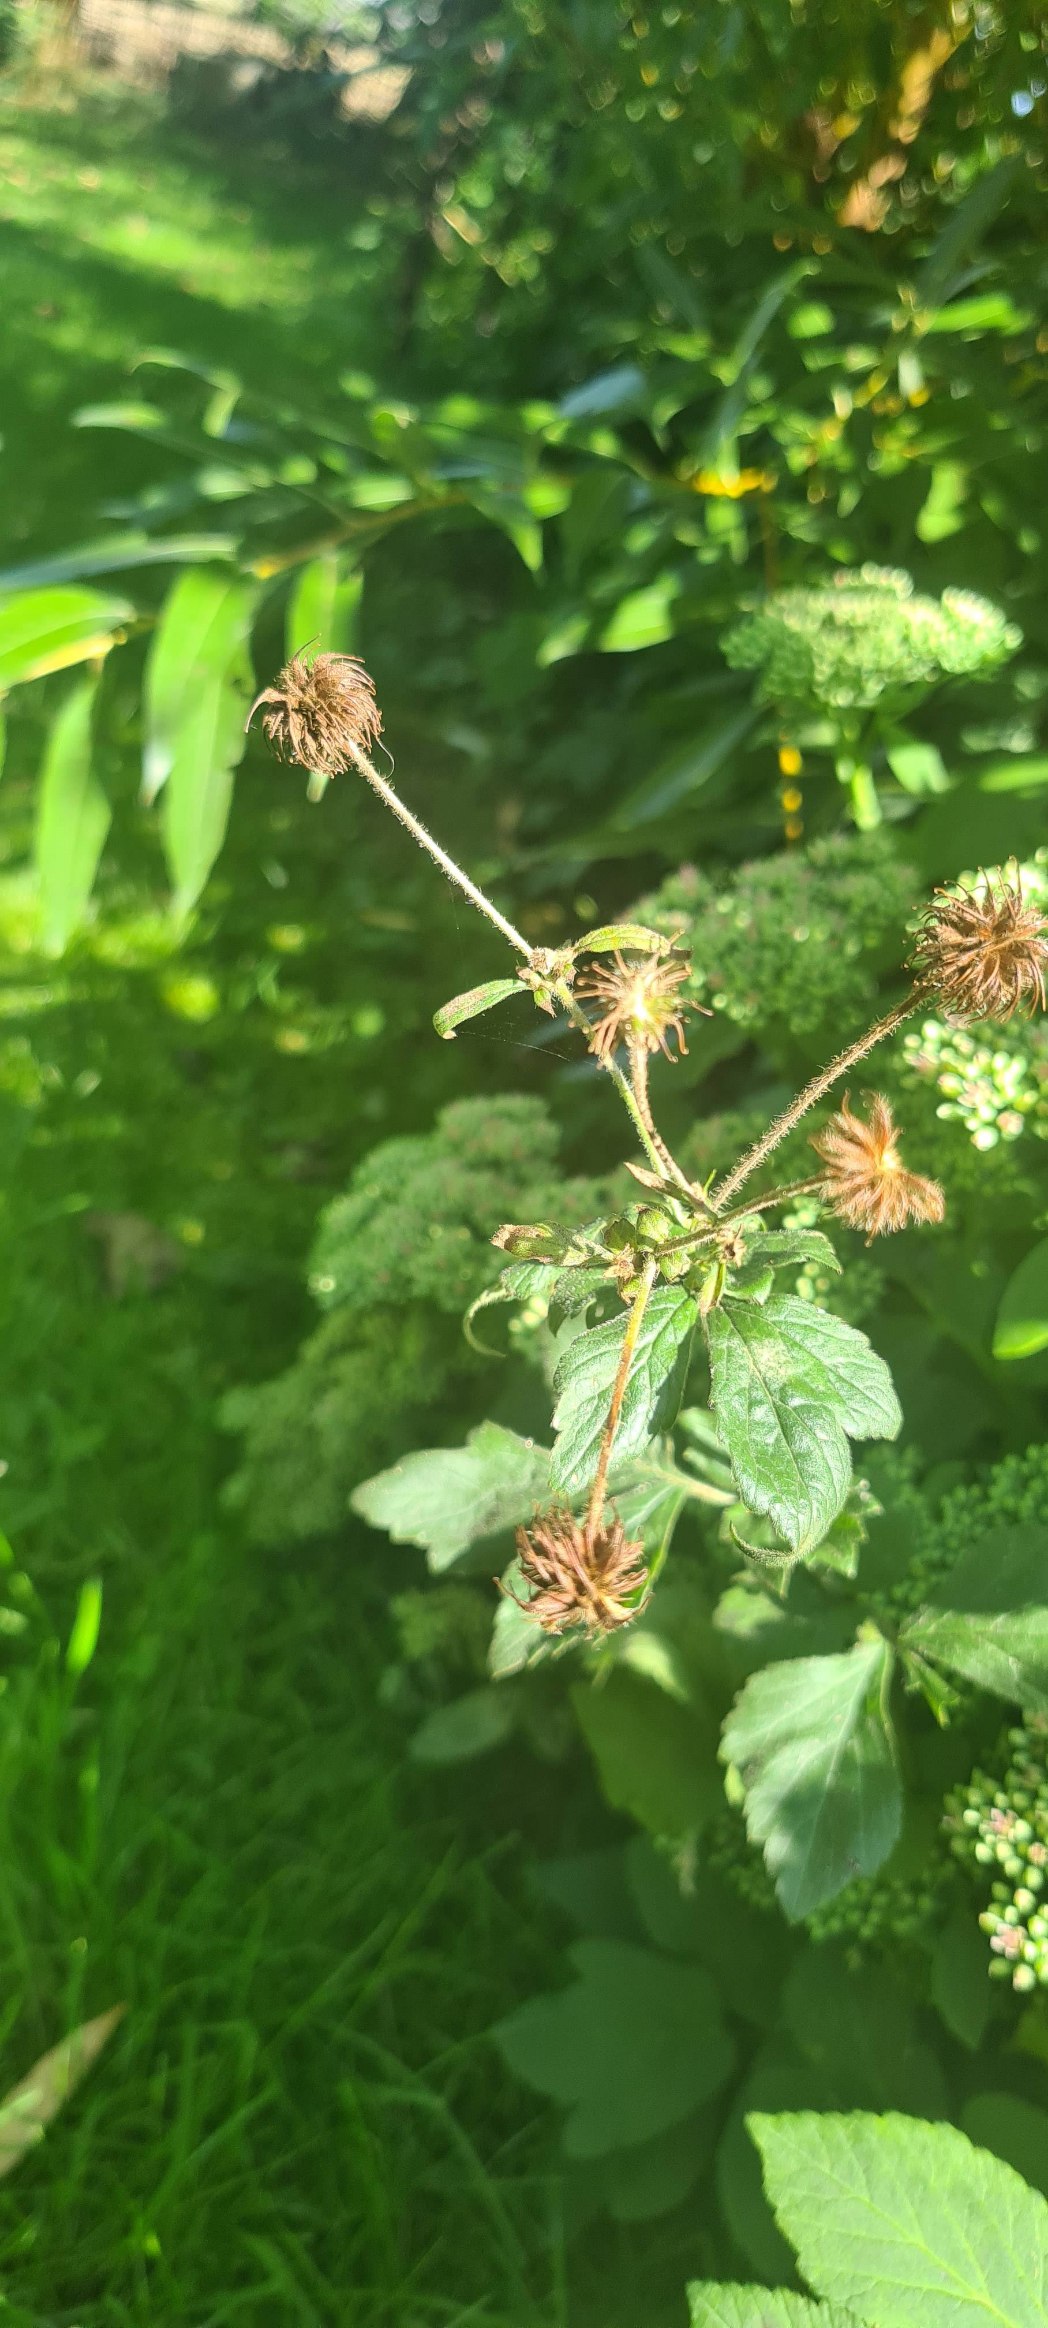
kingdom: Plantae
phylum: Tracheophyta
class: Magnoliopsida
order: Rosales
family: Rosaceae
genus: Geum
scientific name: Geum urbanum
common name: Feber-nellikerod
